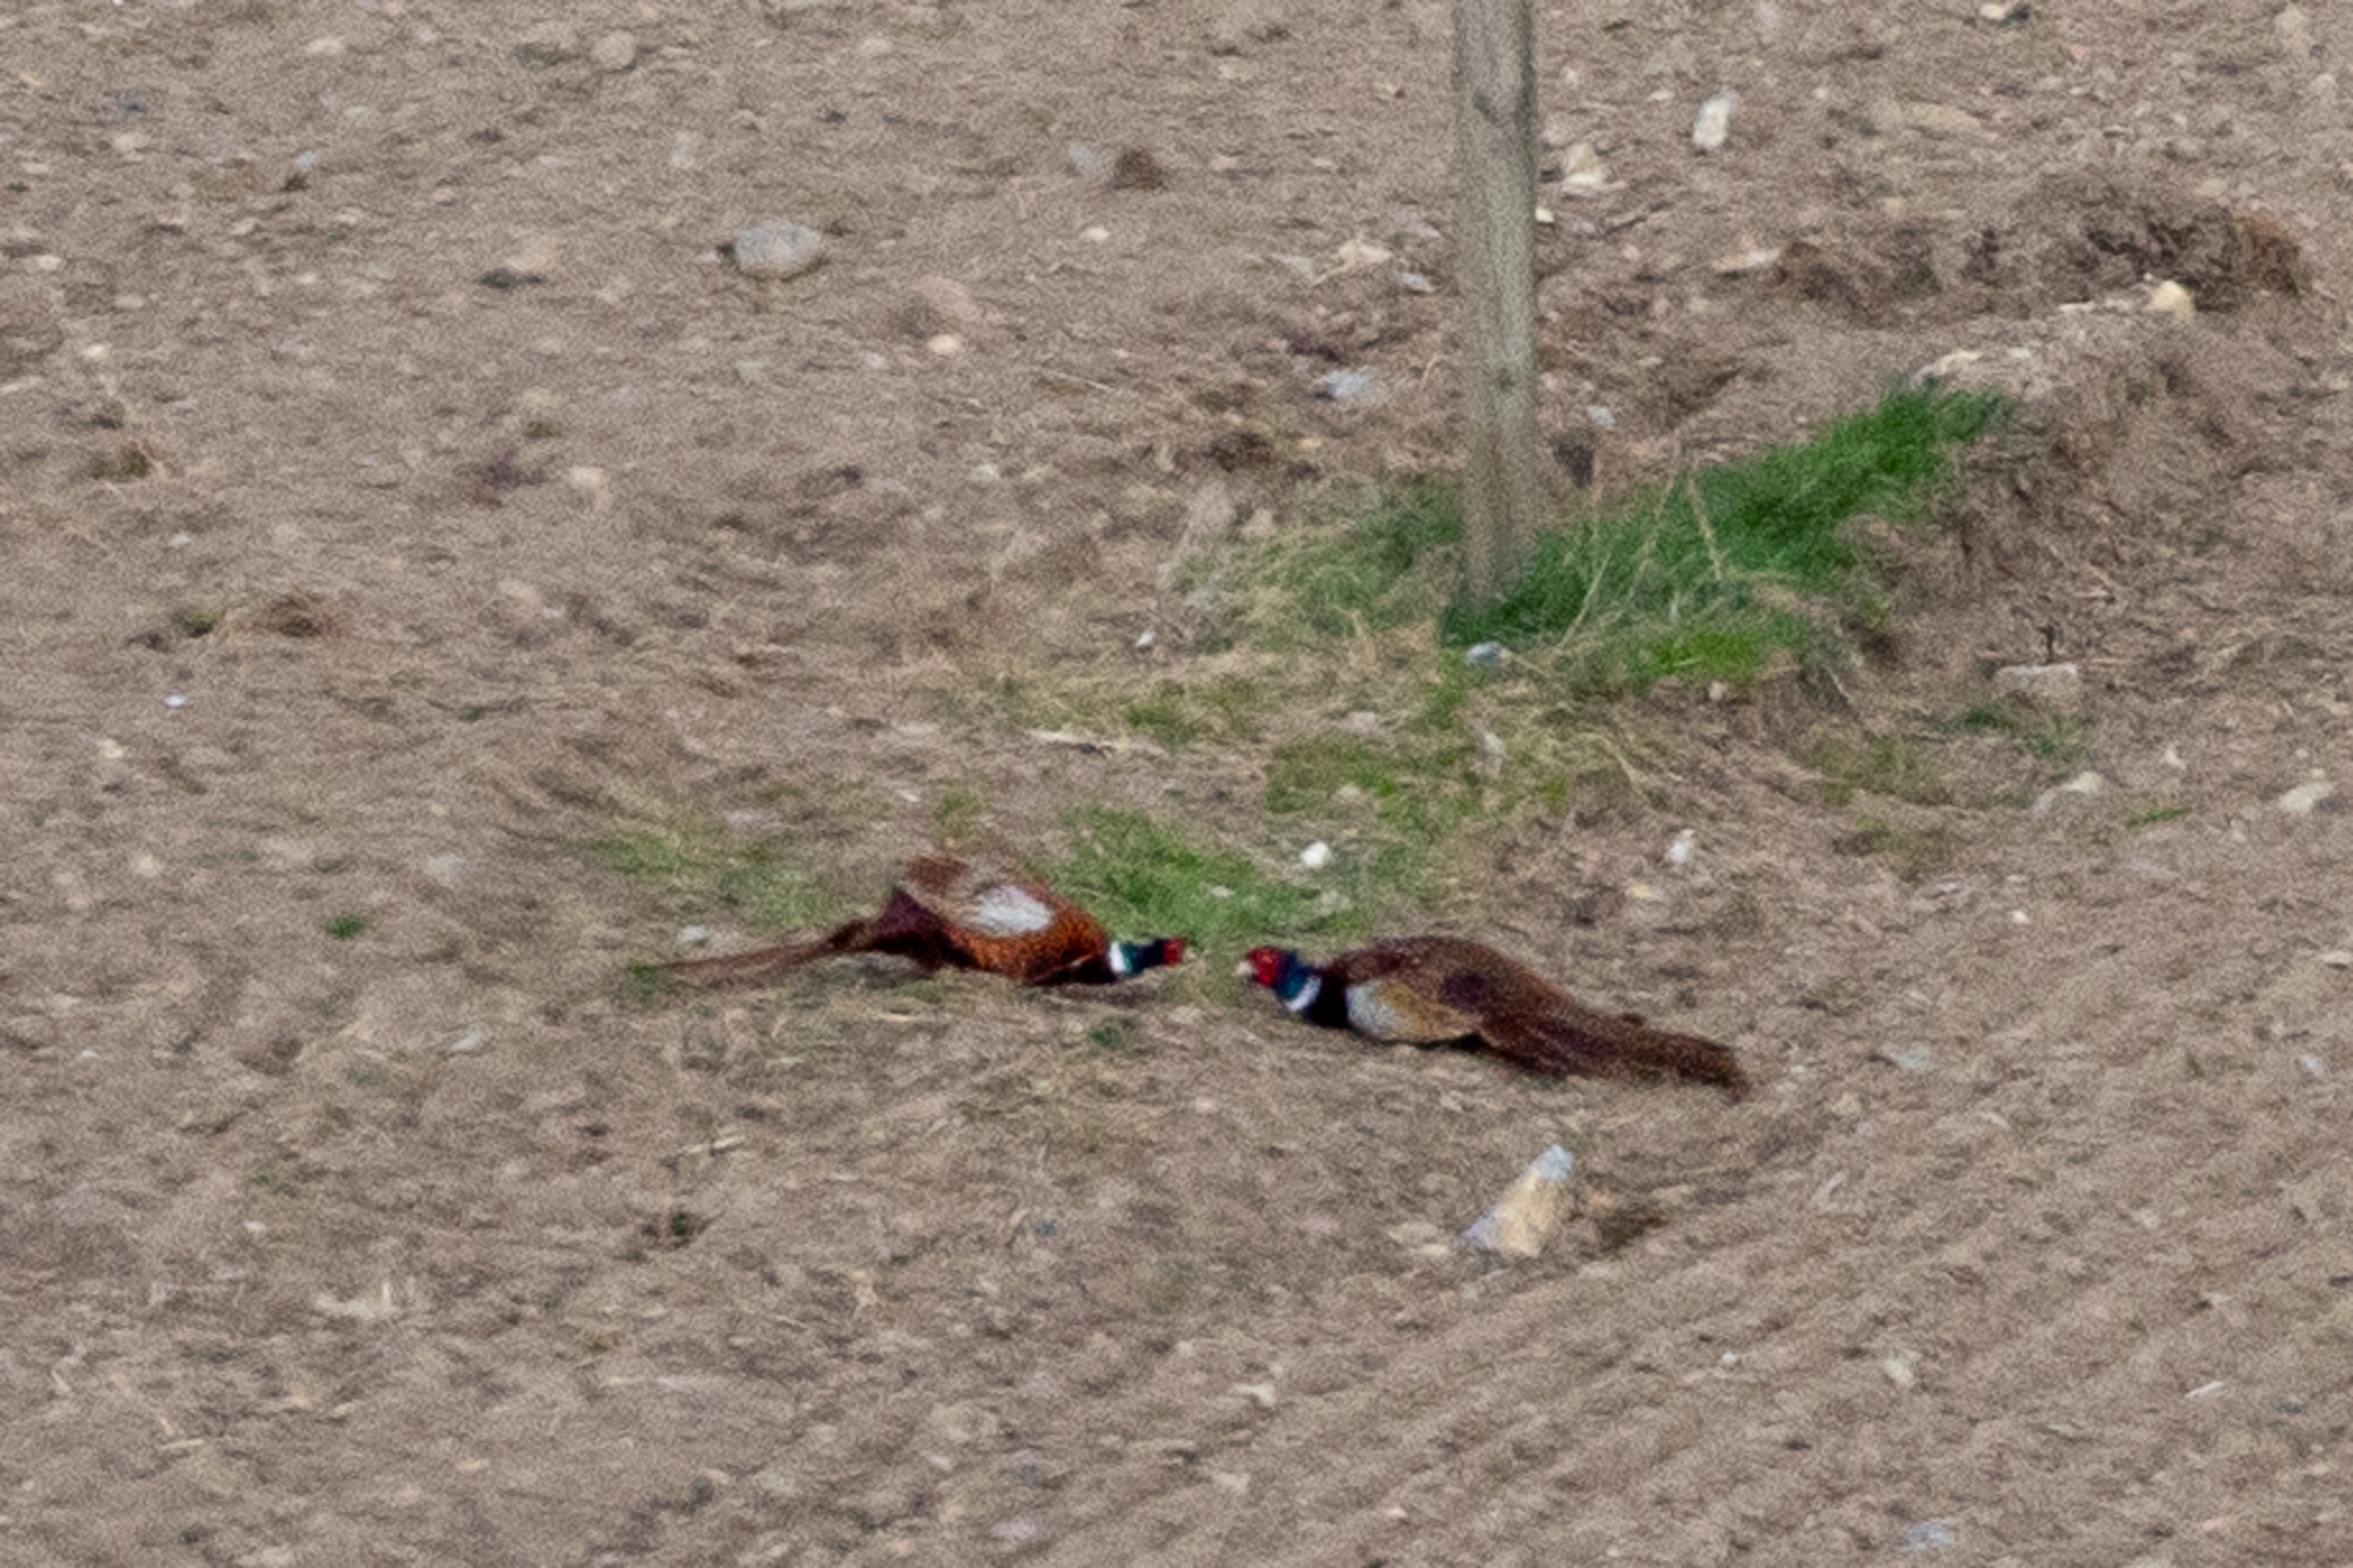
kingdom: Animalia
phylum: Chordata
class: Aves
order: Galliformes
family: Phasianidae
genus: Phasianus
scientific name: Phasianus colchicus
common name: Fasan
